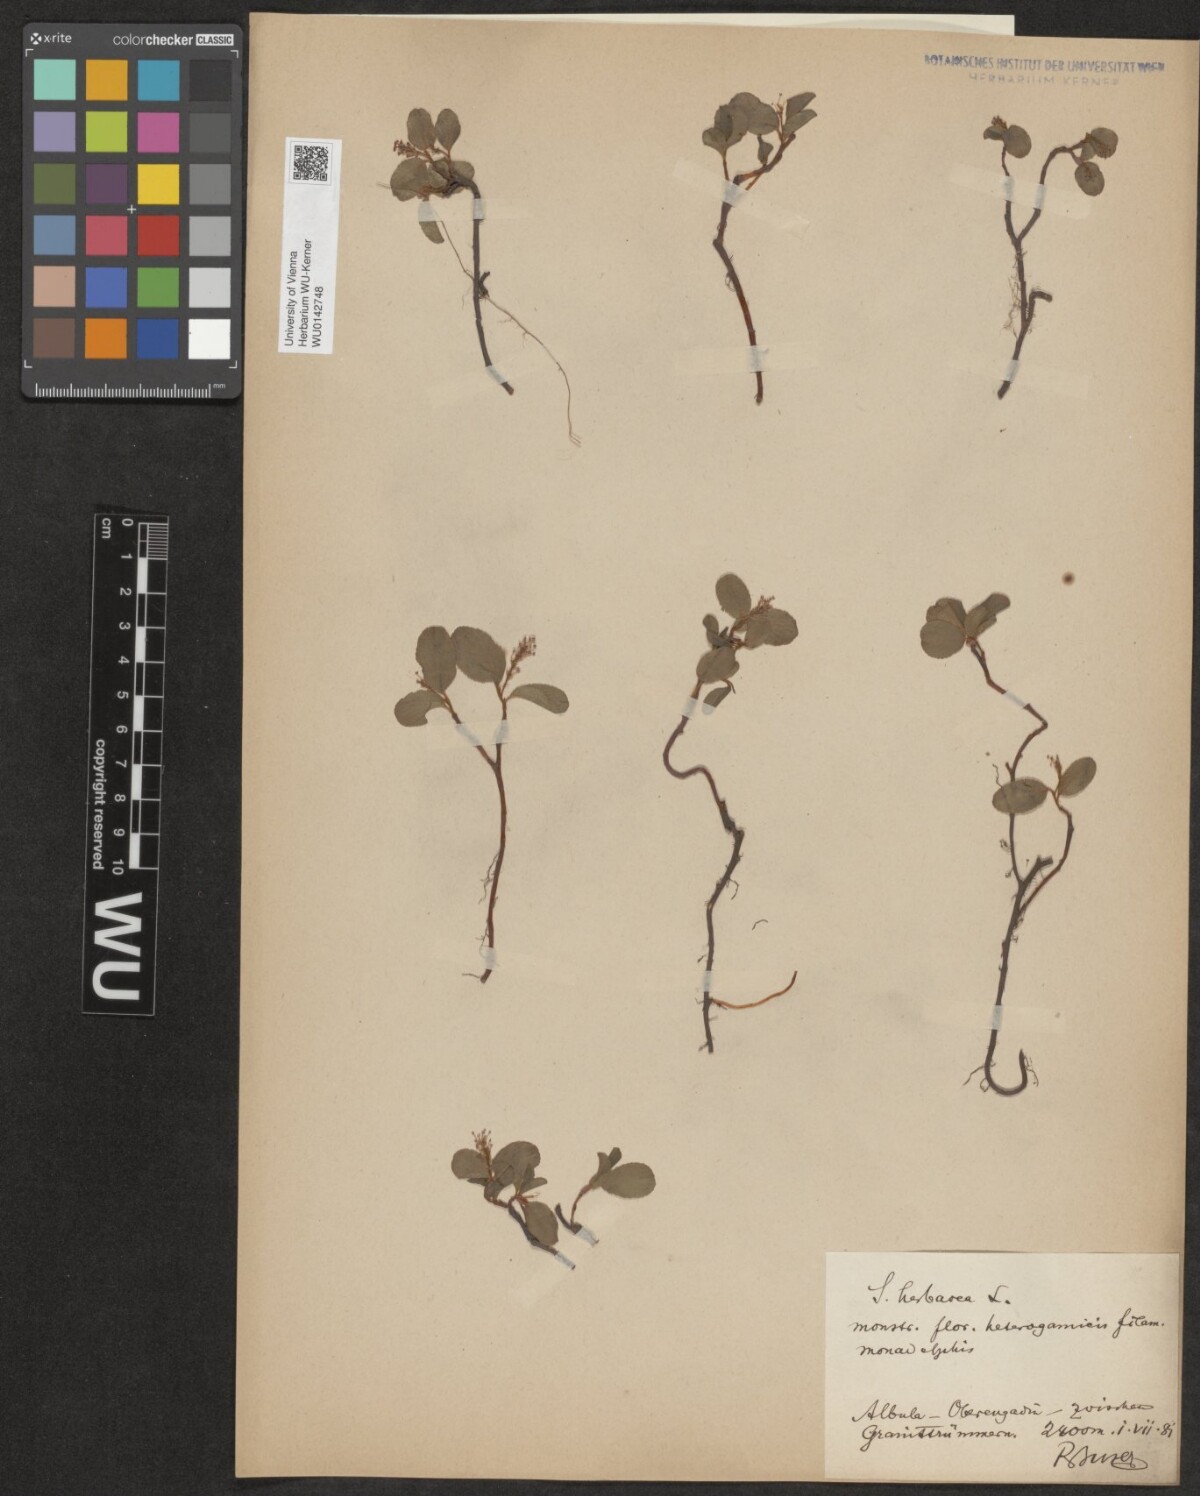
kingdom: Plantae
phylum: Tracheophyta
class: Magnoliopsida
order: Malpighiales
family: Salicaceae
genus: Salix
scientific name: Salix herbacea
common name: Dwarf willow
